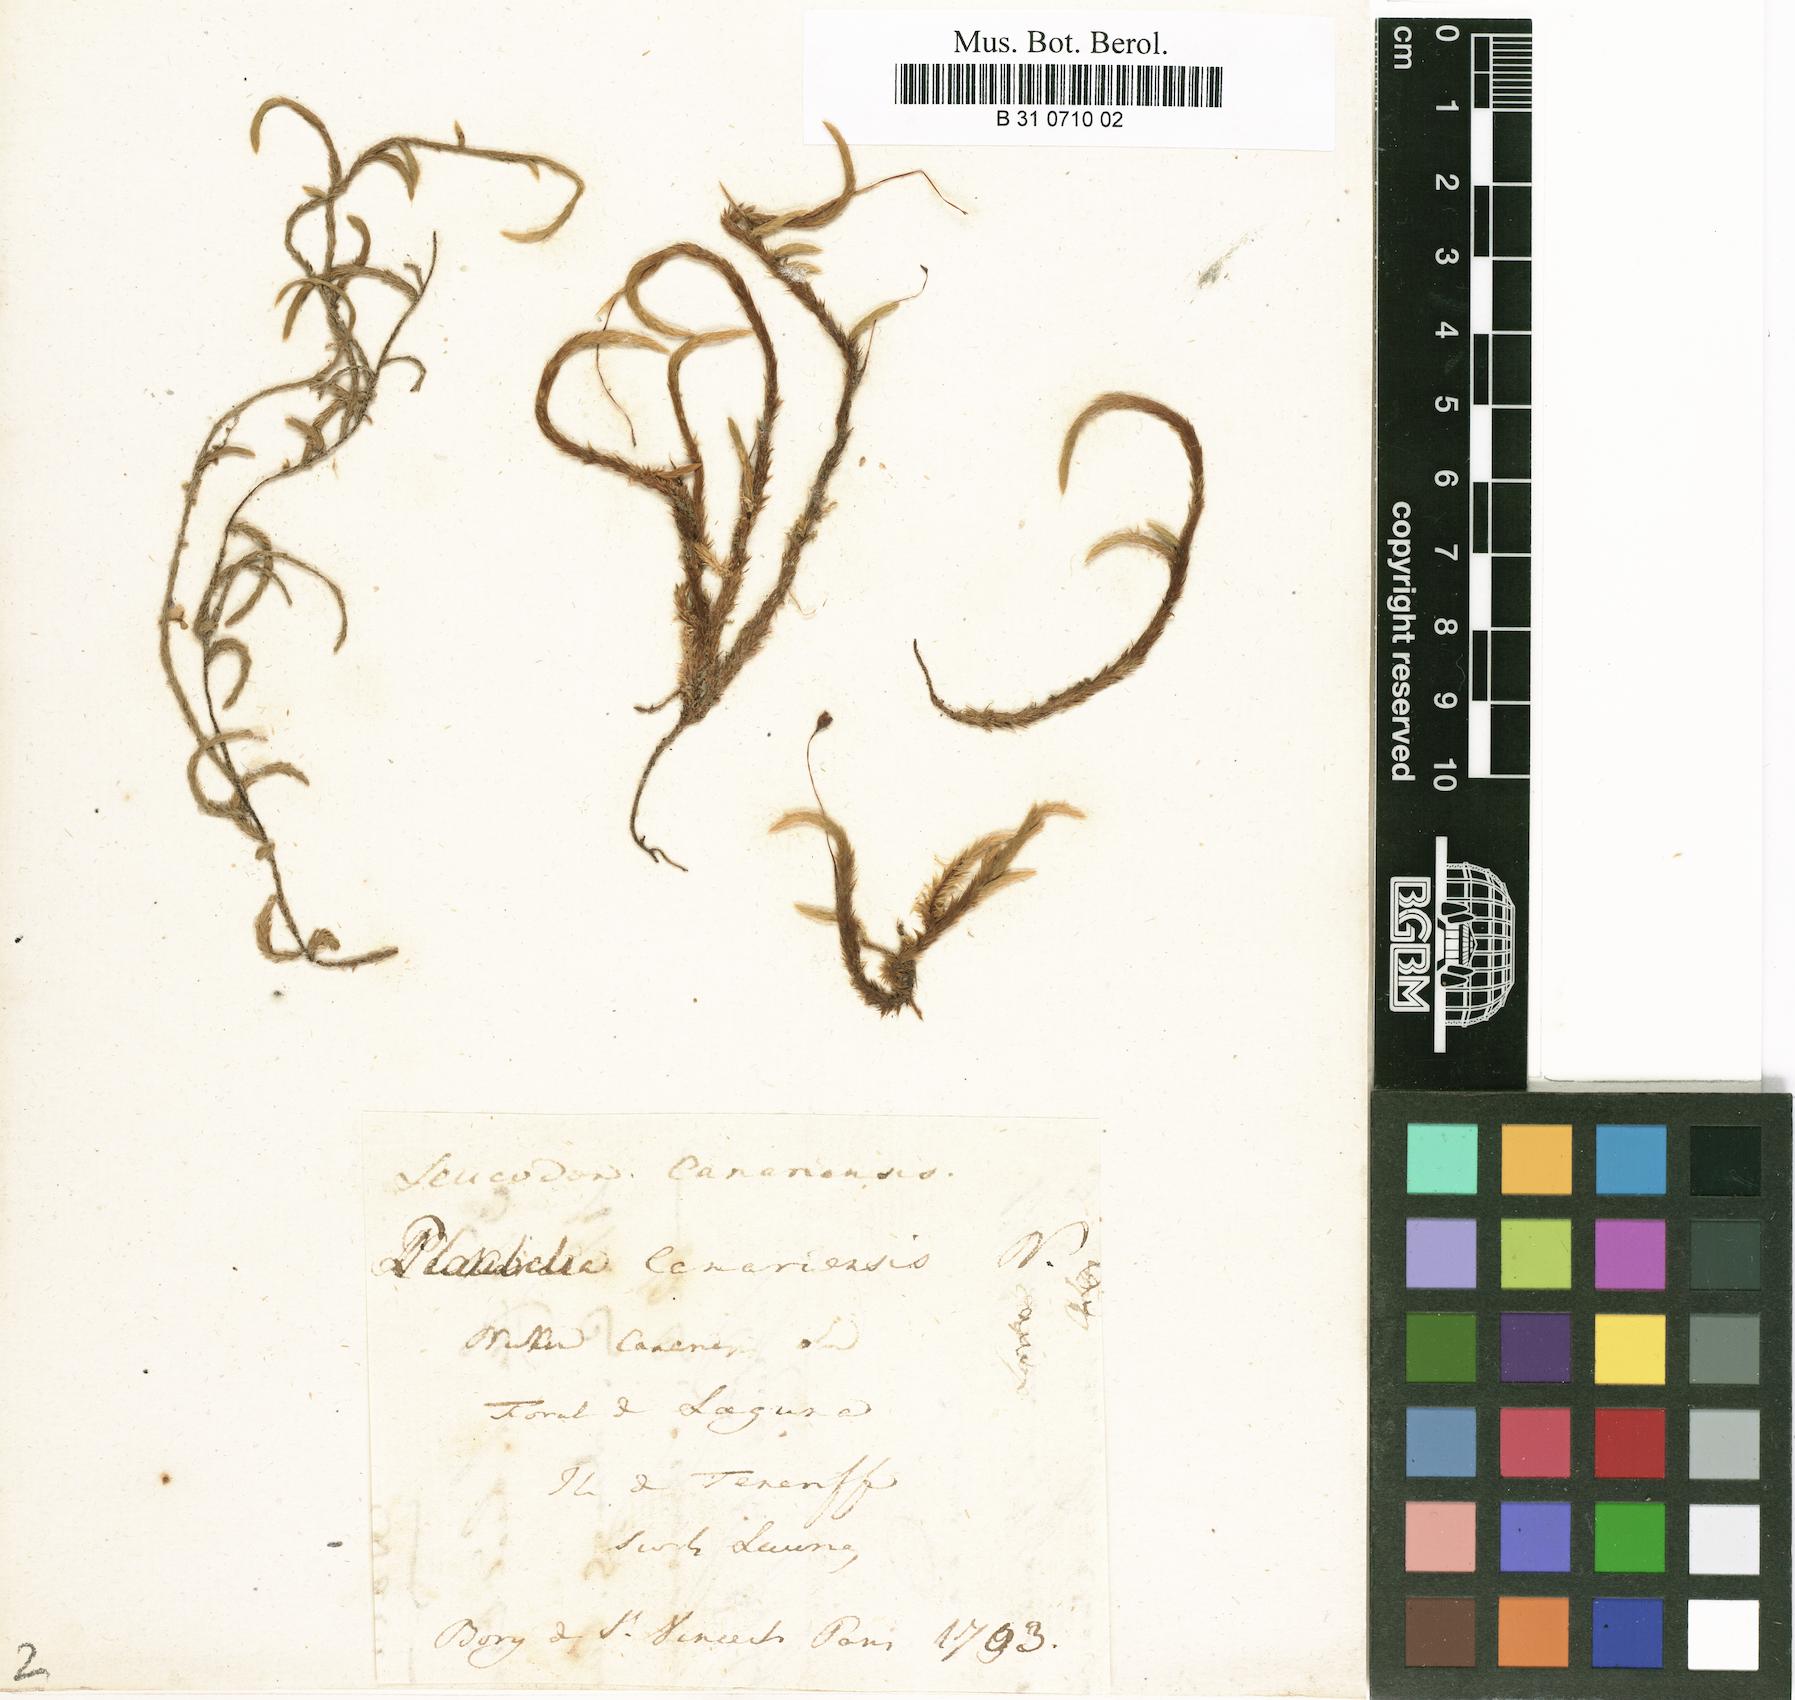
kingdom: Plantae
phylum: Bryophyta
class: Bryopsida
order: Hypnales
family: Leucodontaceae
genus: Leucodon
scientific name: Leucodon canariensis
